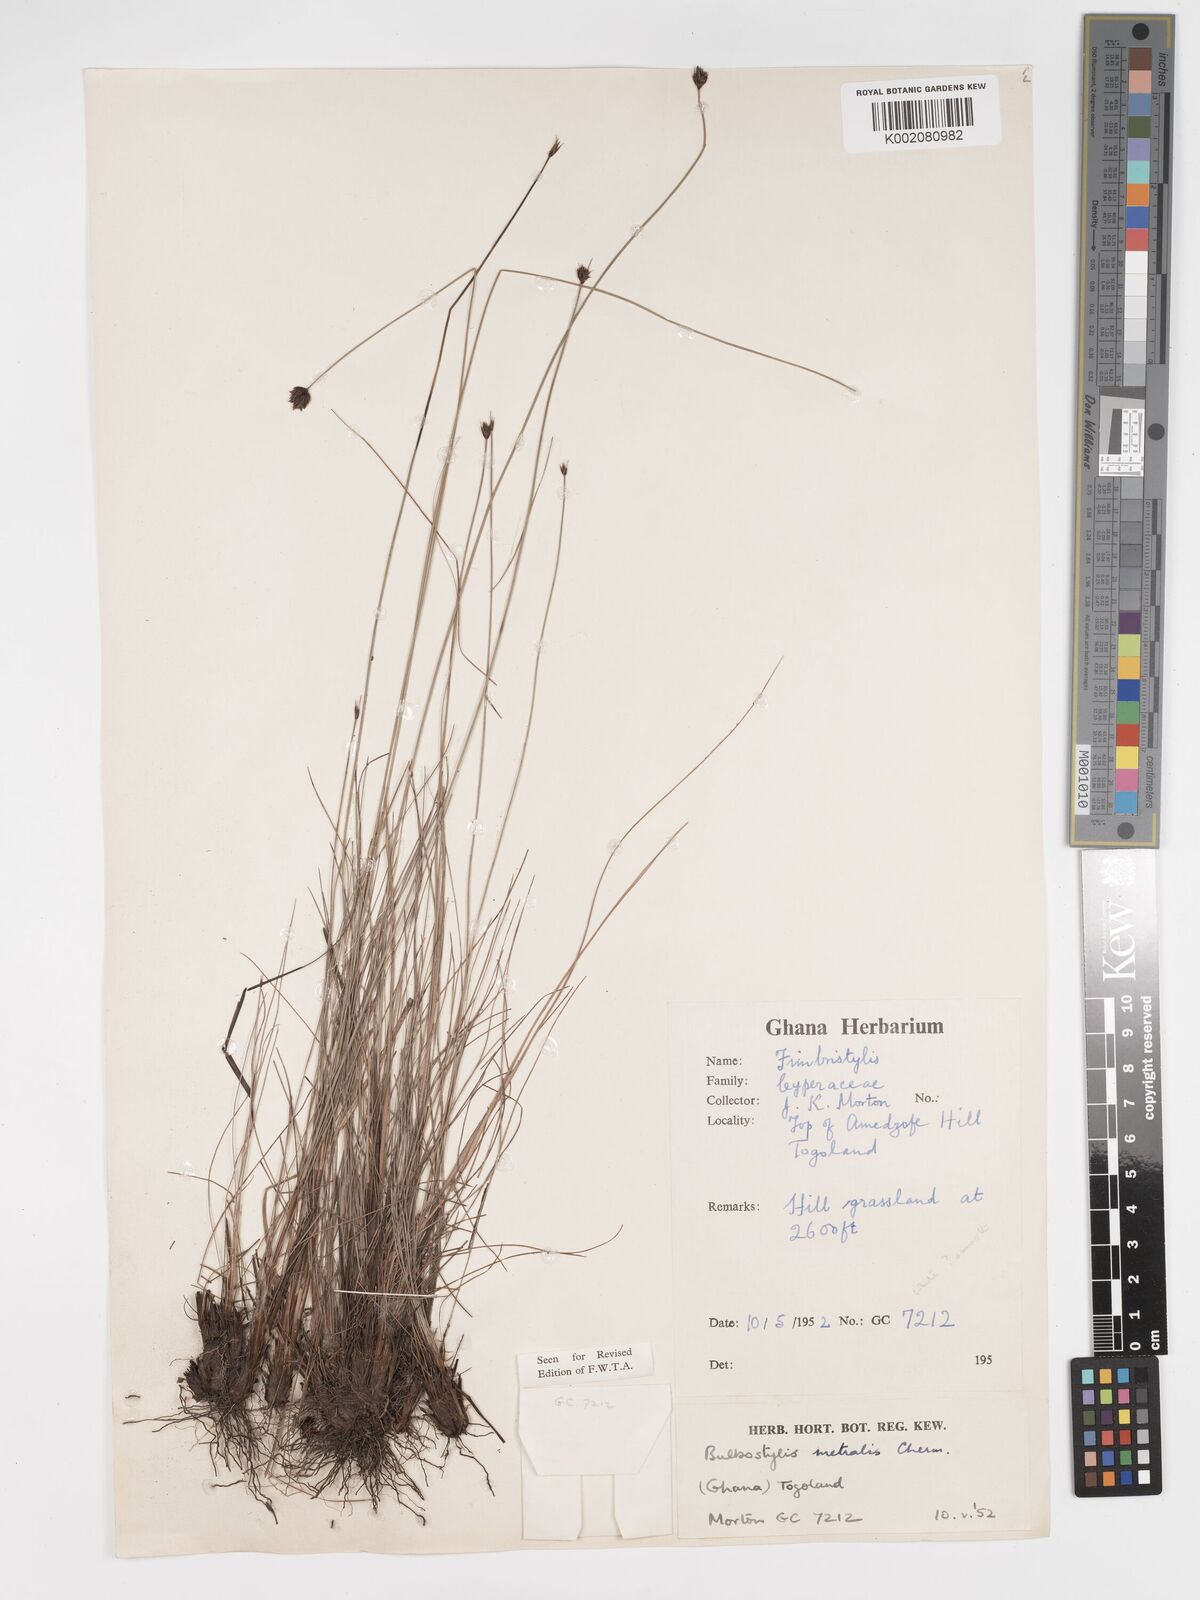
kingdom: Plantae
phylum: Tracheophyta
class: Liliopsida
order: Poales
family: Cyperaceae
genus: Bulbostylis
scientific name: Bulbostylis filamentosa
